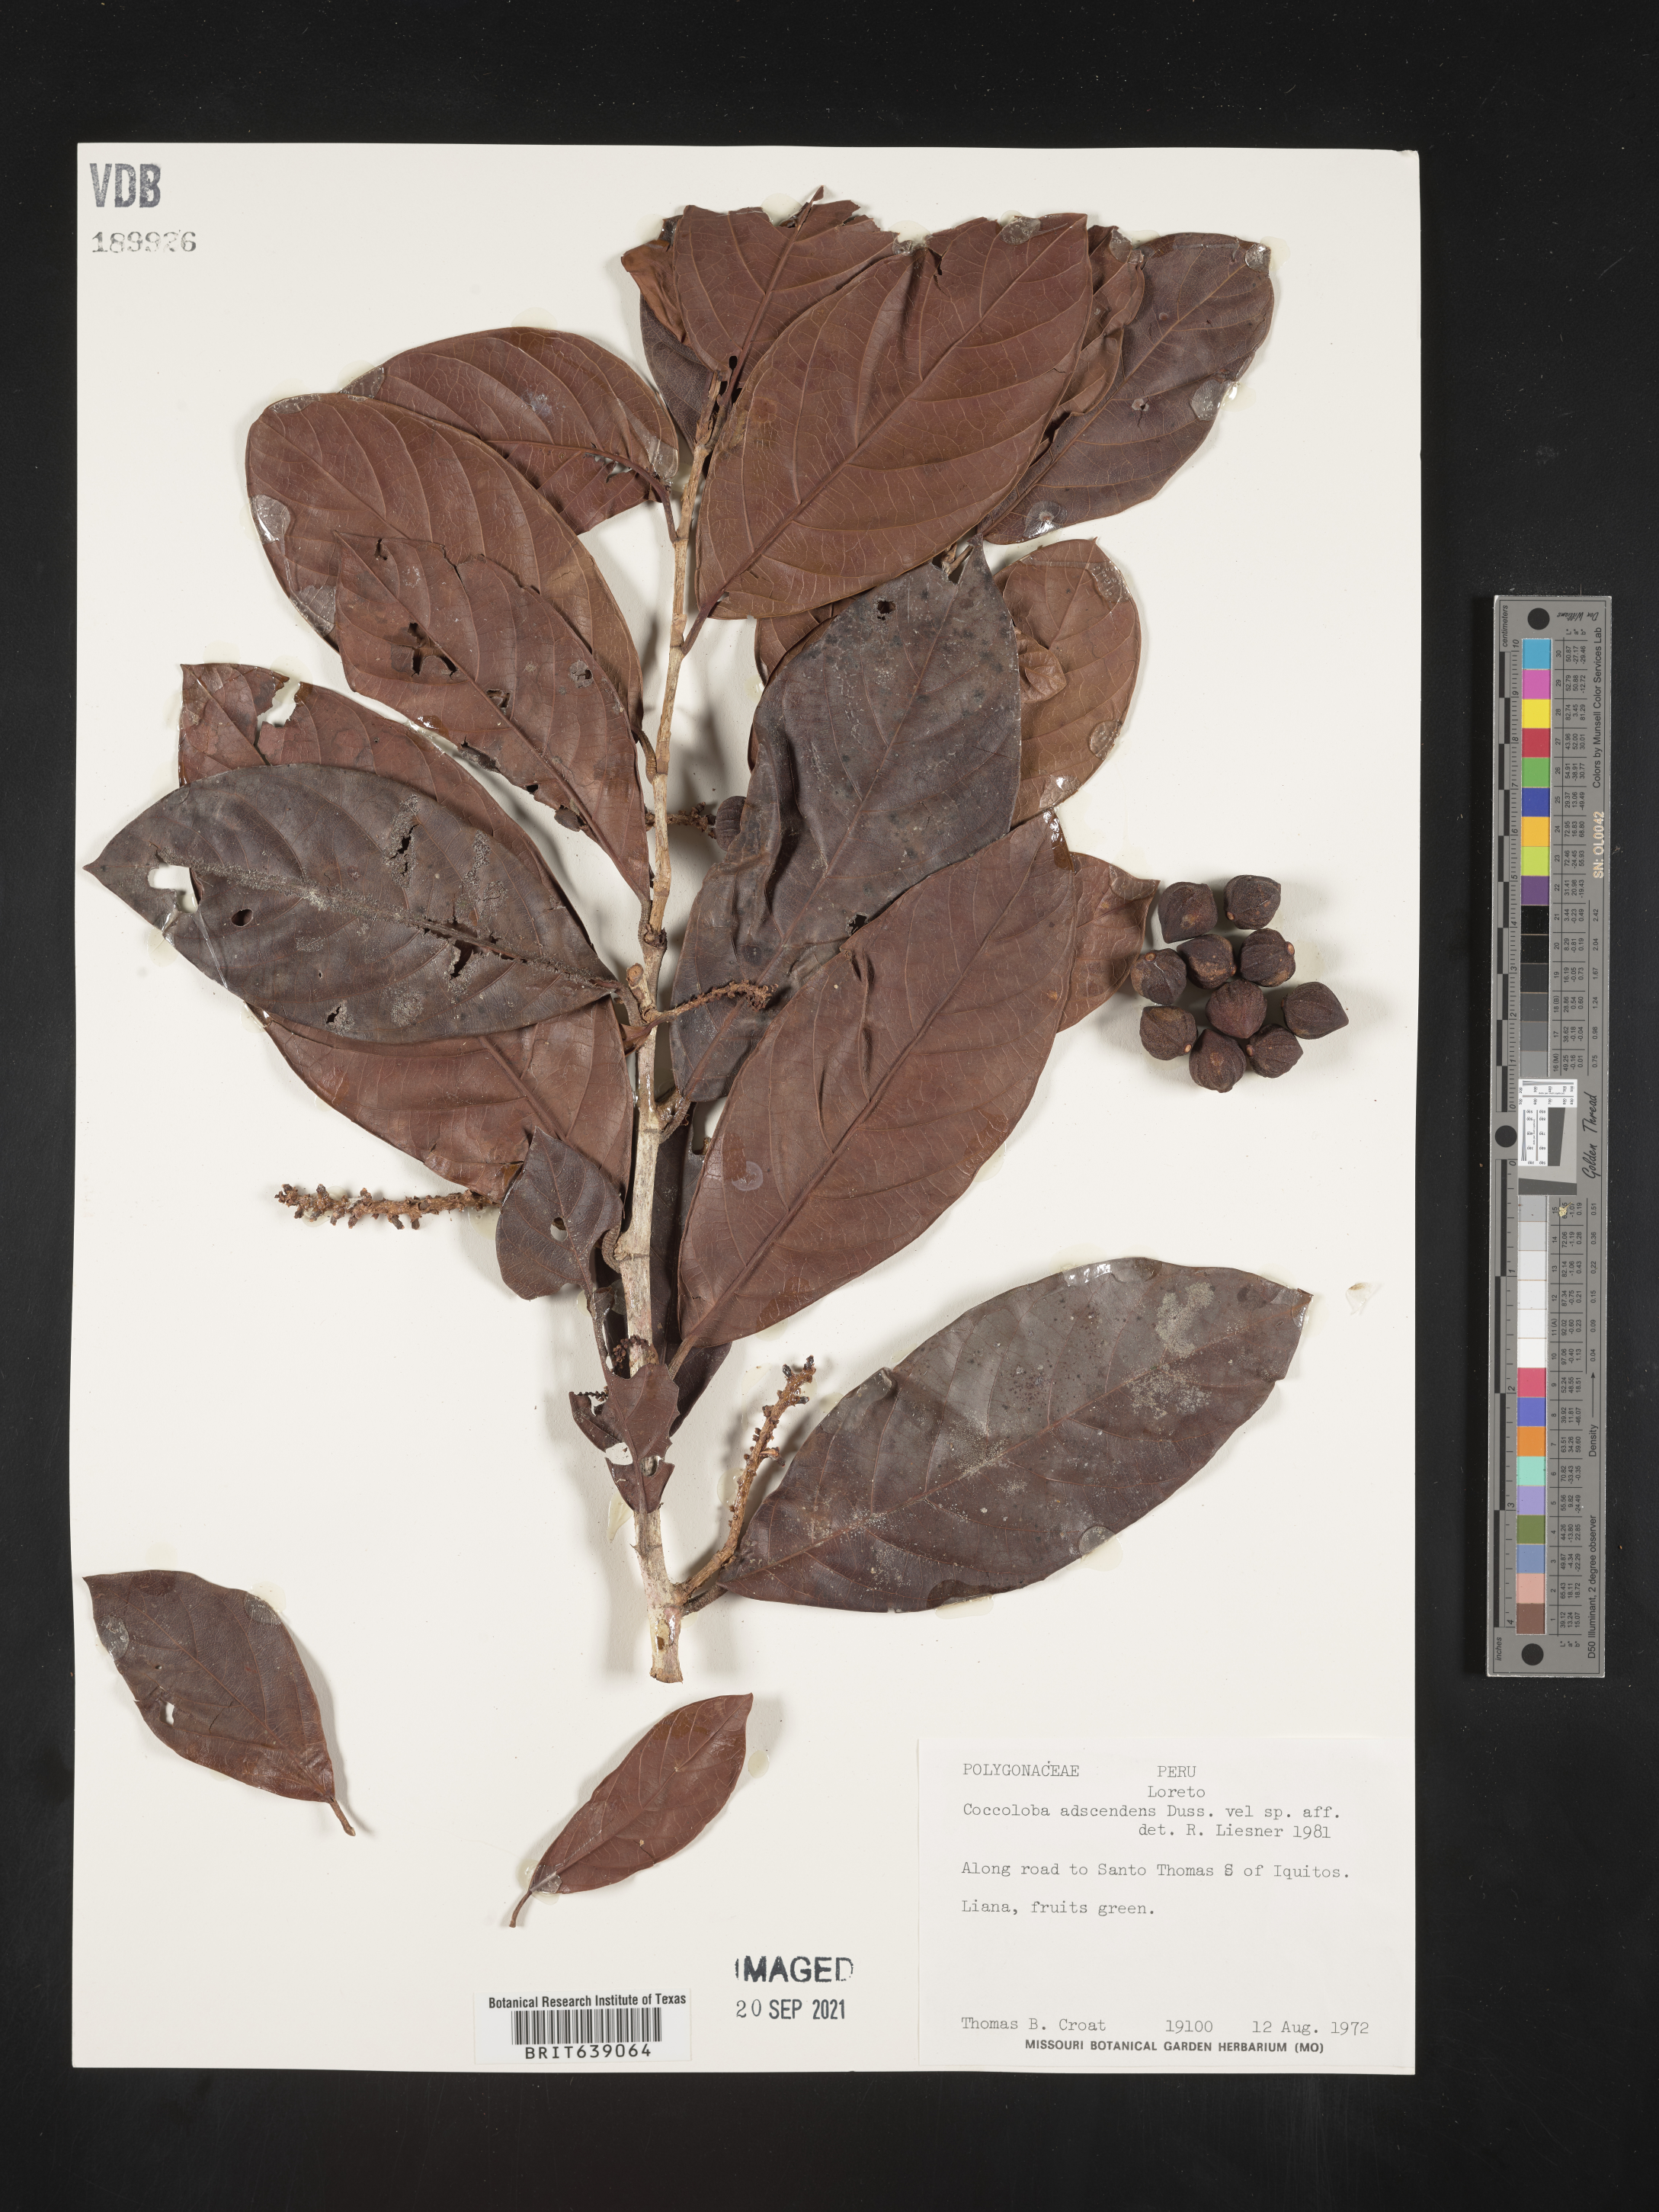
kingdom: Plantae
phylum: Tracheophyta
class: Magnoliopsida
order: Caryophyllales
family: Polygonaceae
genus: Coccoloba
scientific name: Coccoloba
